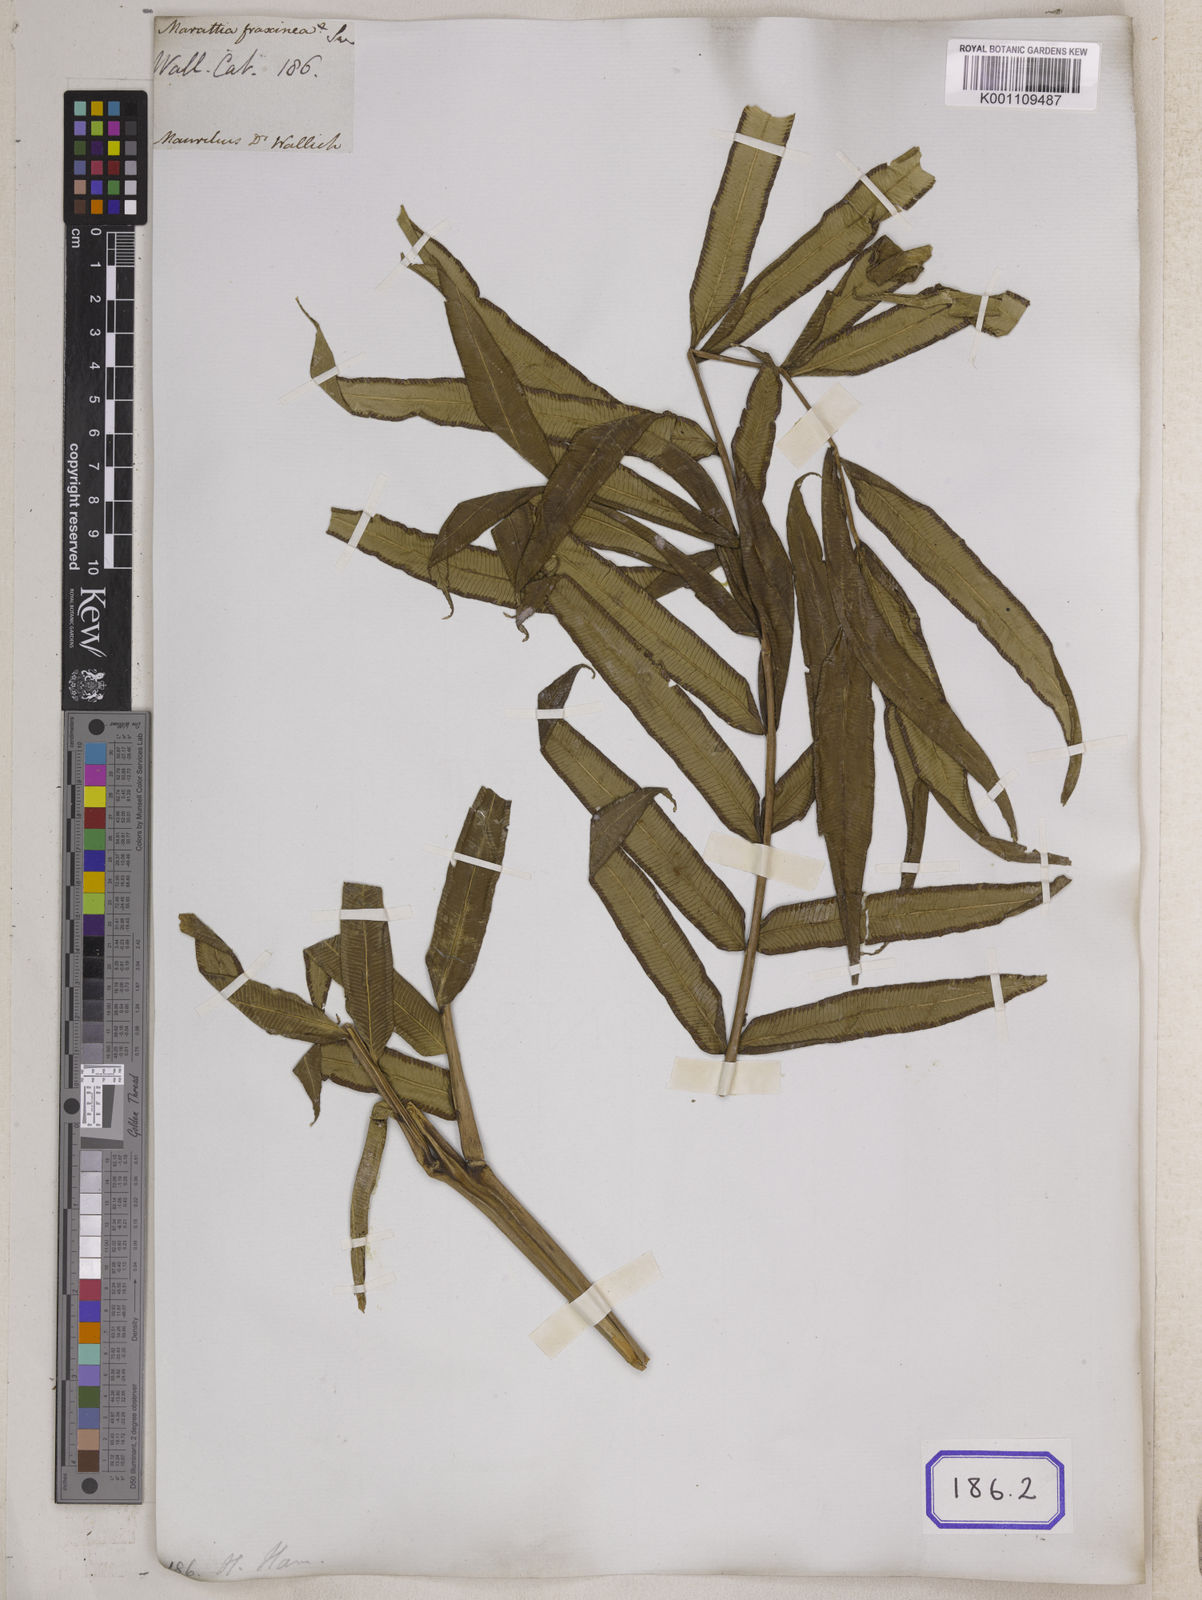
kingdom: Plantae
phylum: Tracheophyta
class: Polypodiopsida
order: Marattiales
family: Marattiaceae
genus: Marattia
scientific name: Marattia
